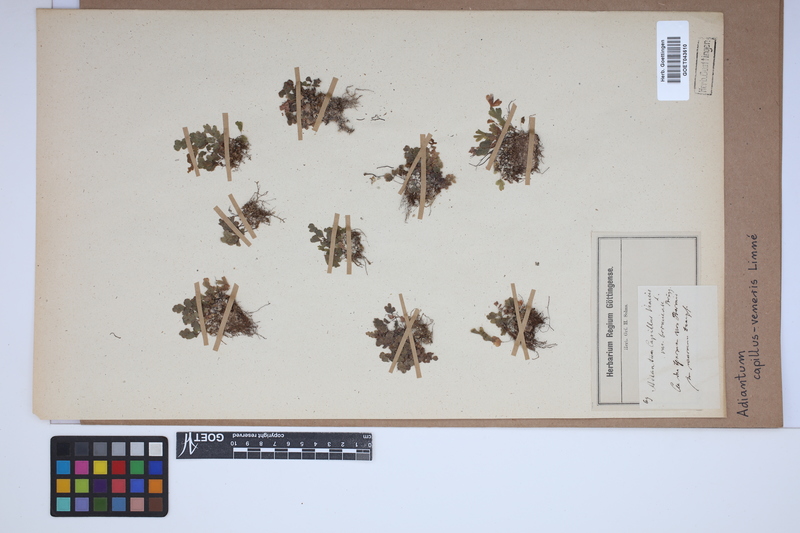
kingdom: Plantae
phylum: Tracheophyta
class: Polypodiopsida
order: Polypodiales
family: Pteridaceae
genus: Adiantum
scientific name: Adiantum capillus-veneris
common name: Maidenhair fern
